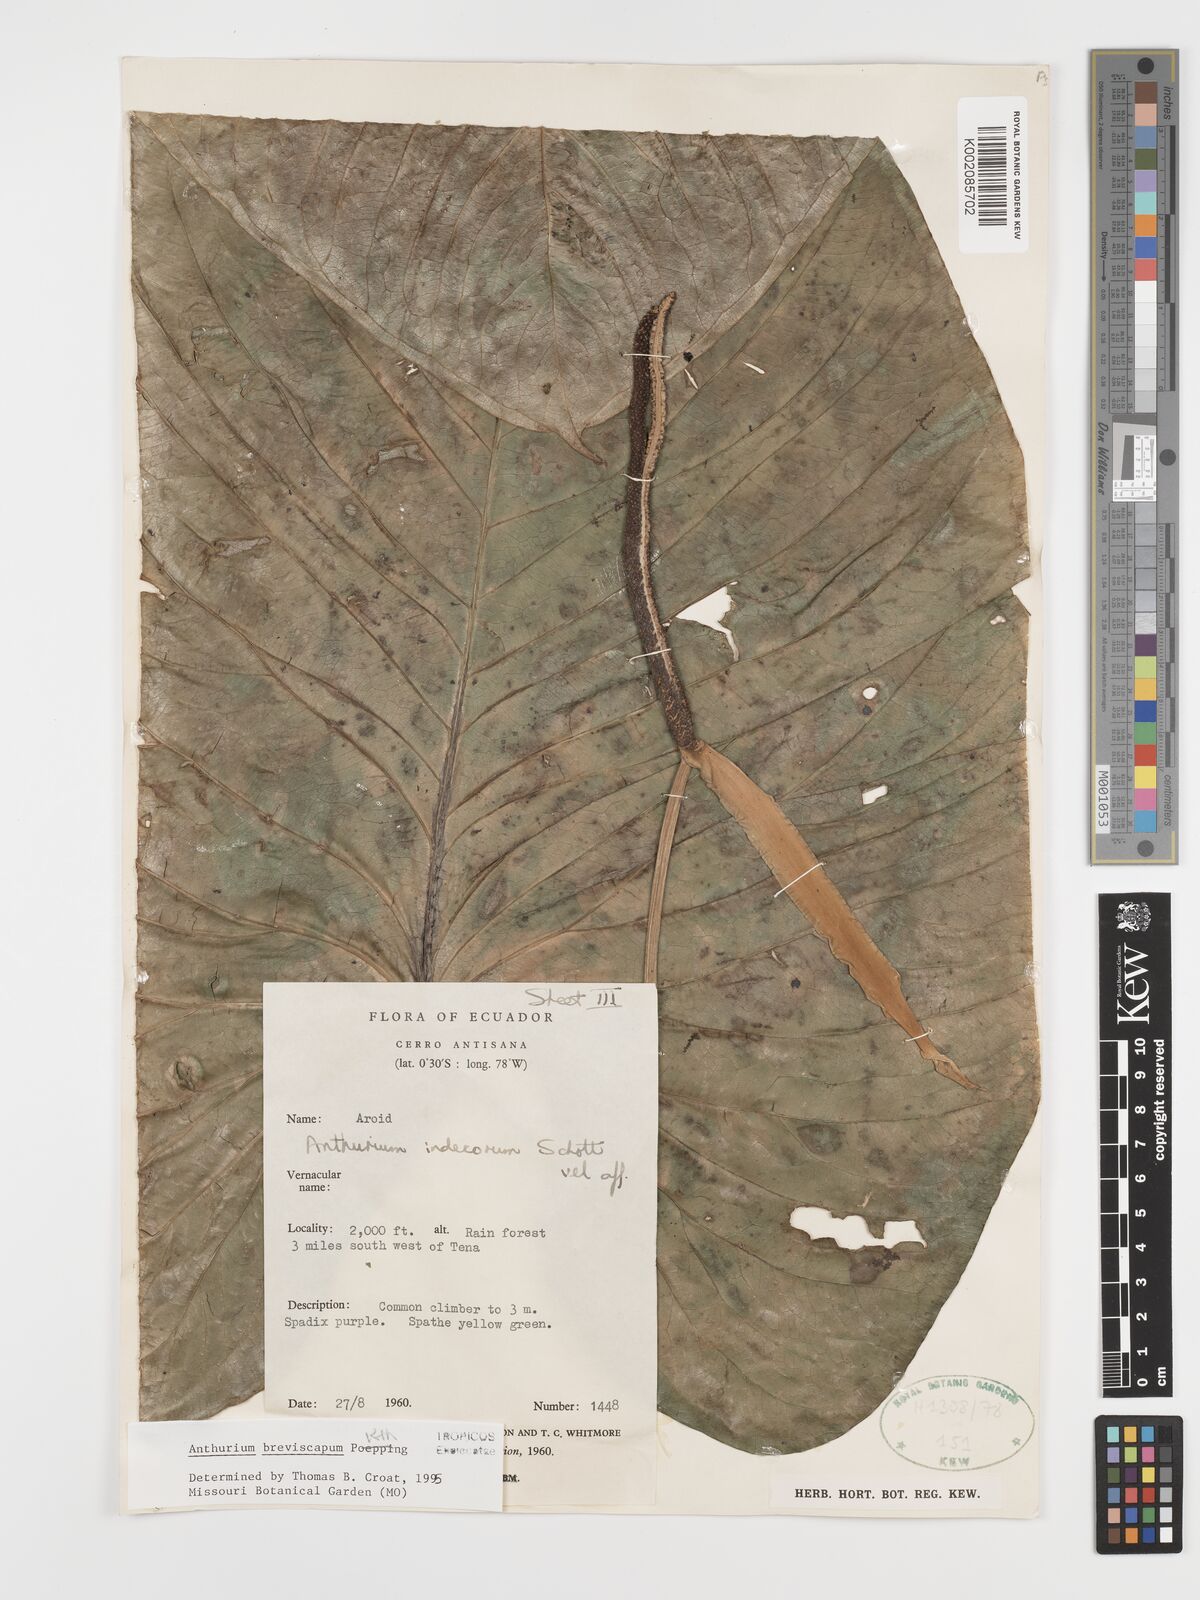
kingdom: Plantae
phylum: Tracheophyta
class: Liliopsida
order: Alismatales
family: Araceae
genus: Anthurium
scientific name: Anthurium breviscapum
